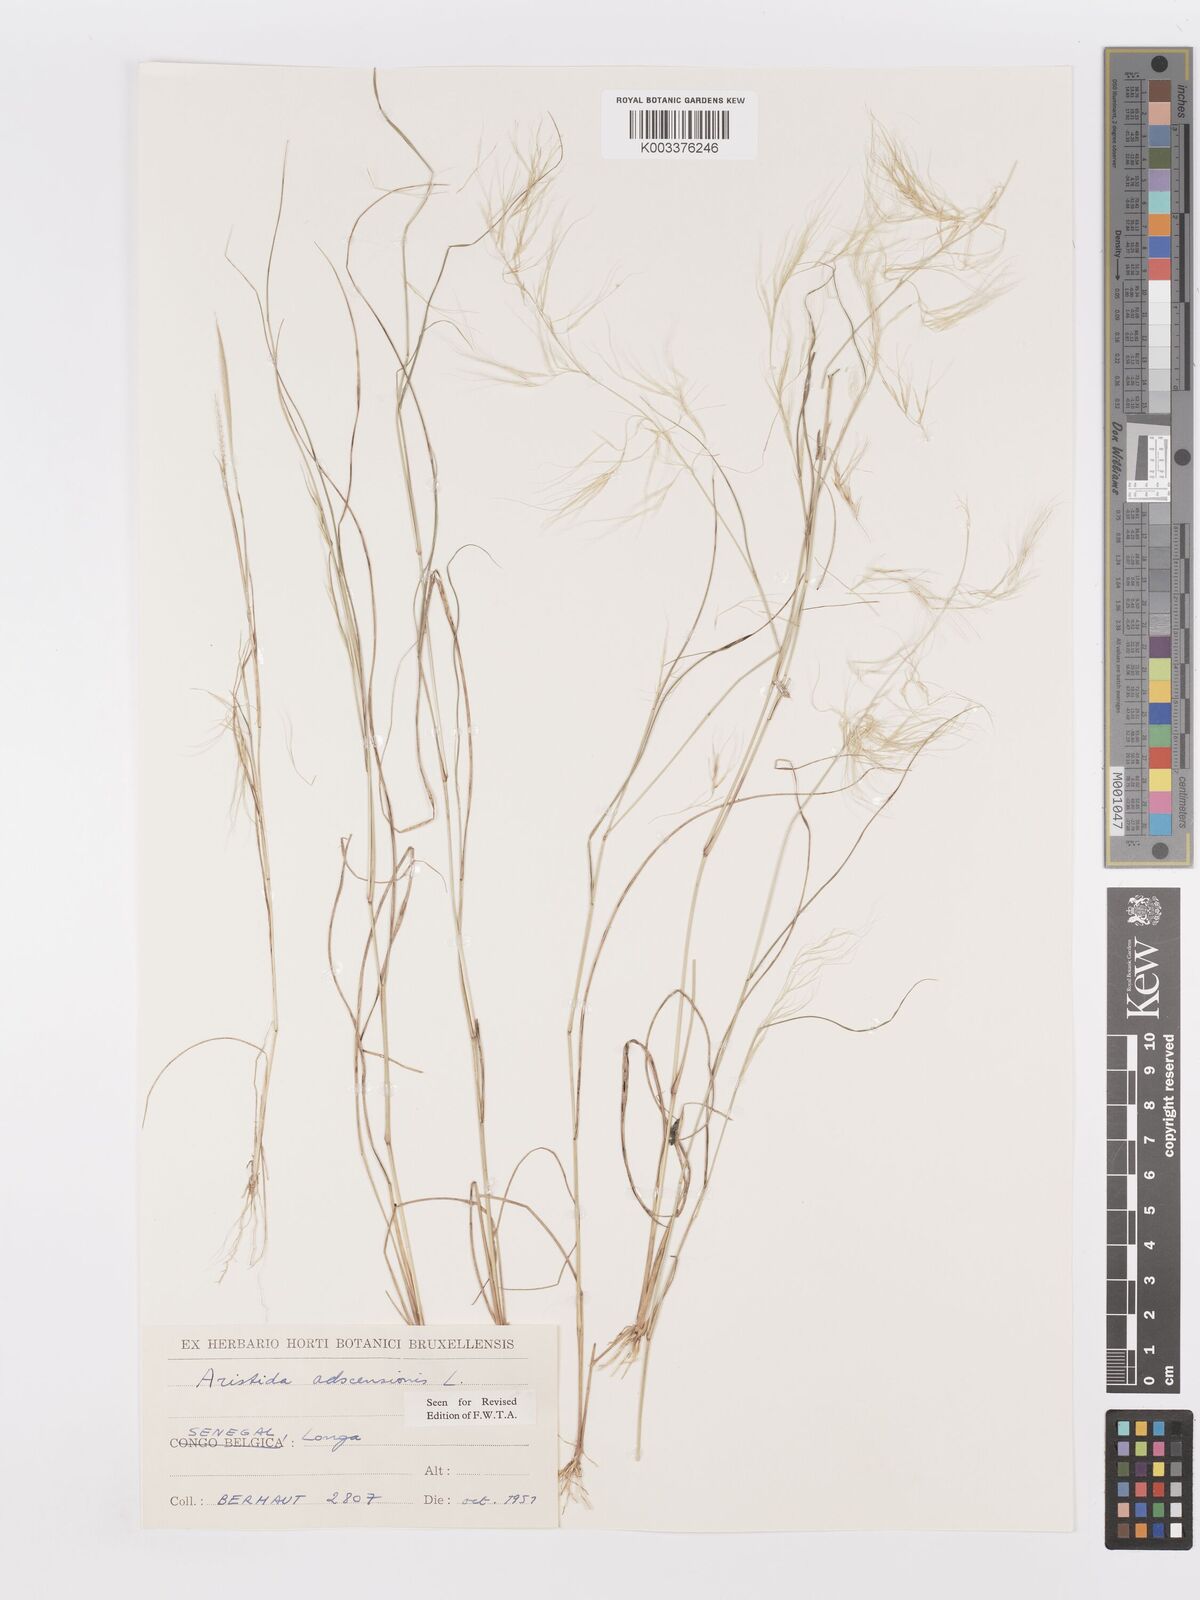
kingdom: Plantae
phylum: Tracheophyta
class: Liliopsida
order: Poales
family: Poaceae
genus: Aristida
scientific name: Aristida adscensionis
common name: Sixweeks threeawn
